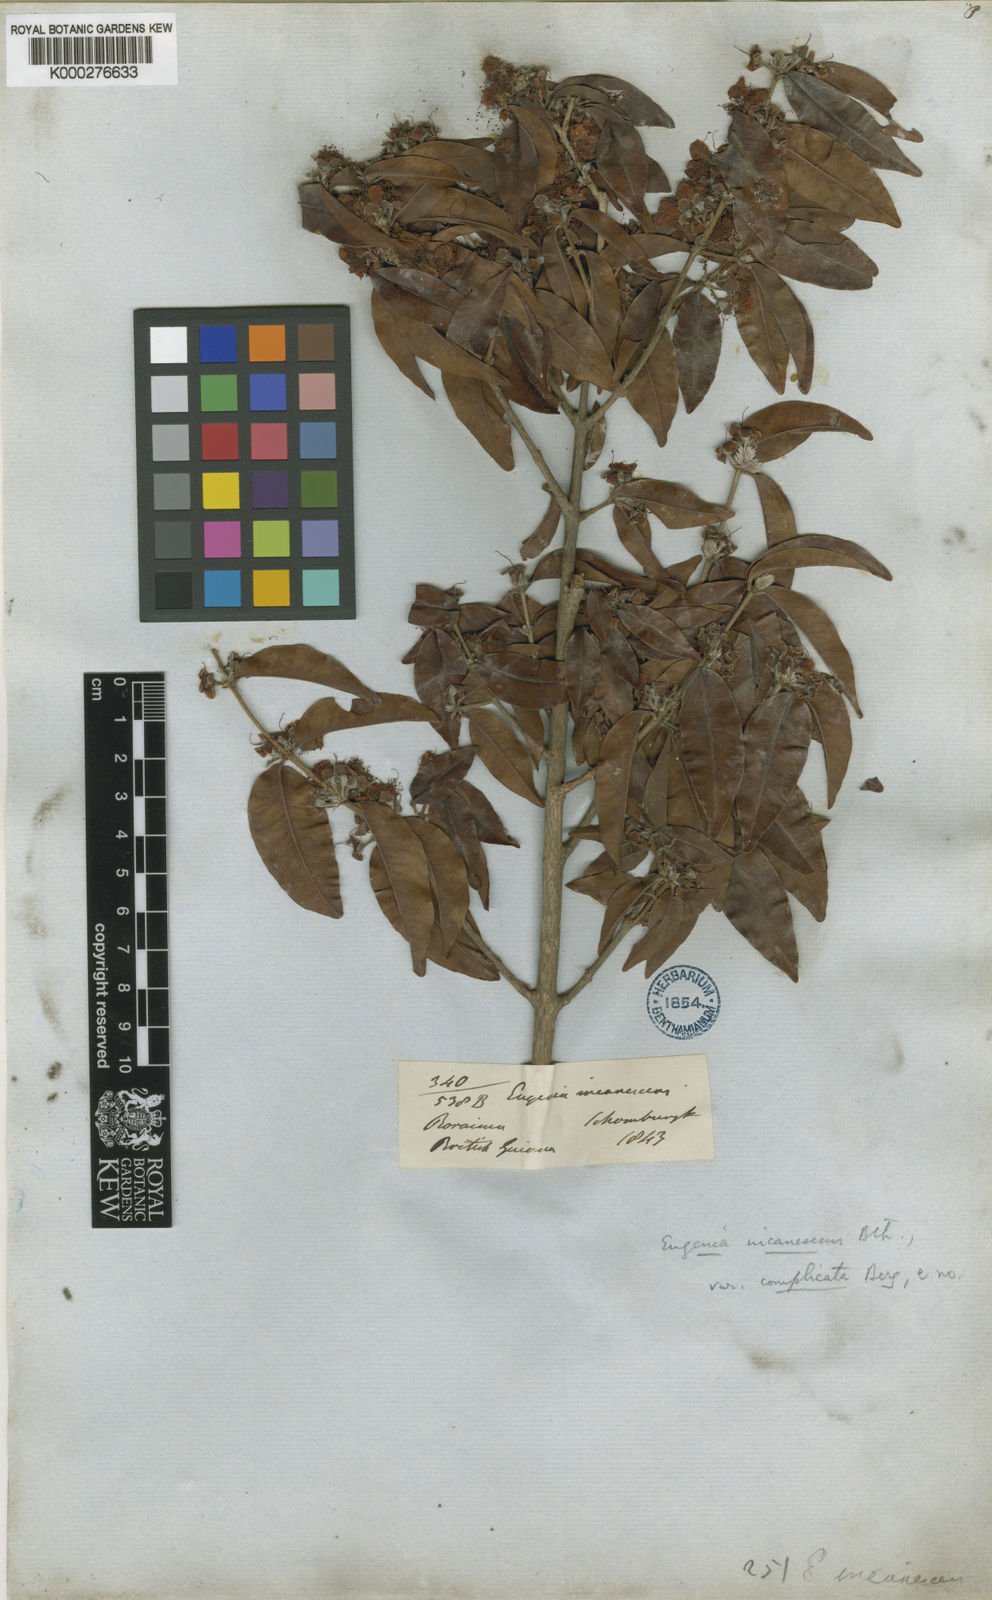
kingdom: Plantae
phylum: Tracheophyta
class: Magnoliopsida
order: Myrtales
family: Myrtaceae
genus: Eugenia
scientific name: Eugenia incanescens
